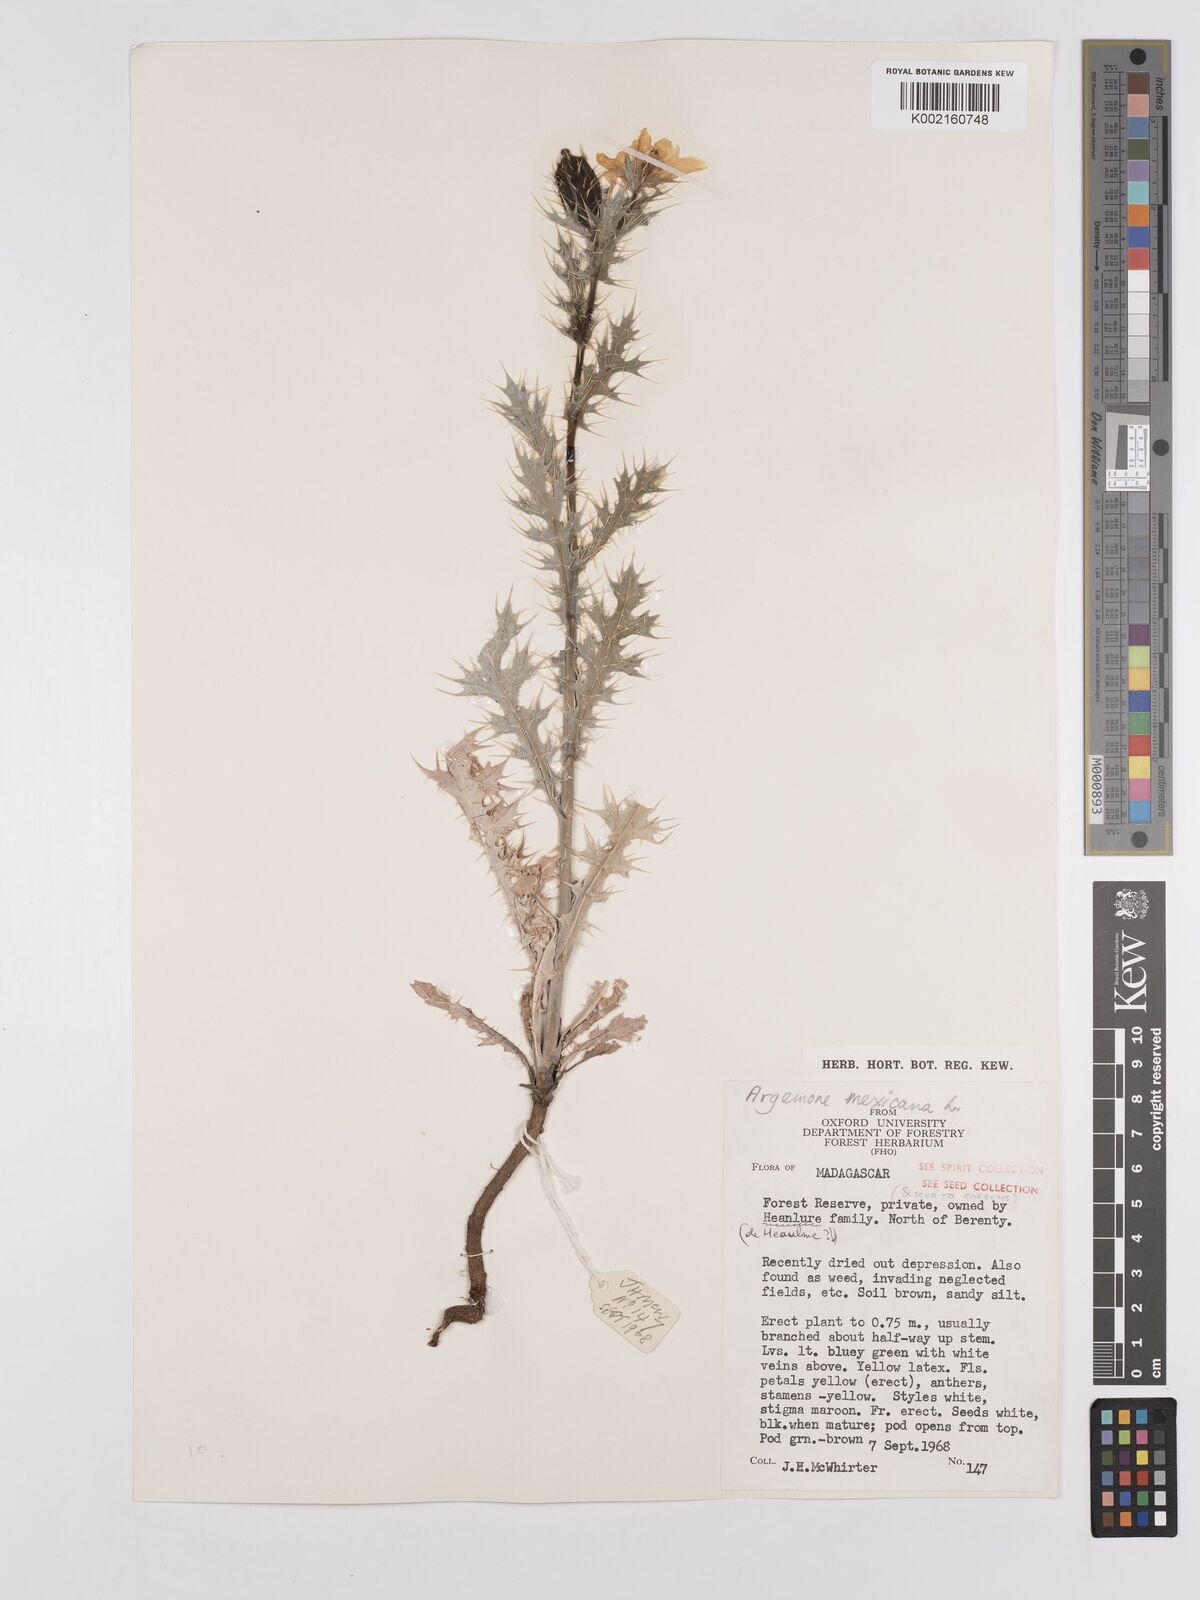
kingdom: Plantae
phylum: Tracheophyta
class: Magnoliopsida
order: Ranunculales
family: Papaveraceae
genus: Argemone
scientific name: Argemone mexicana
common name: Mexican poppy
